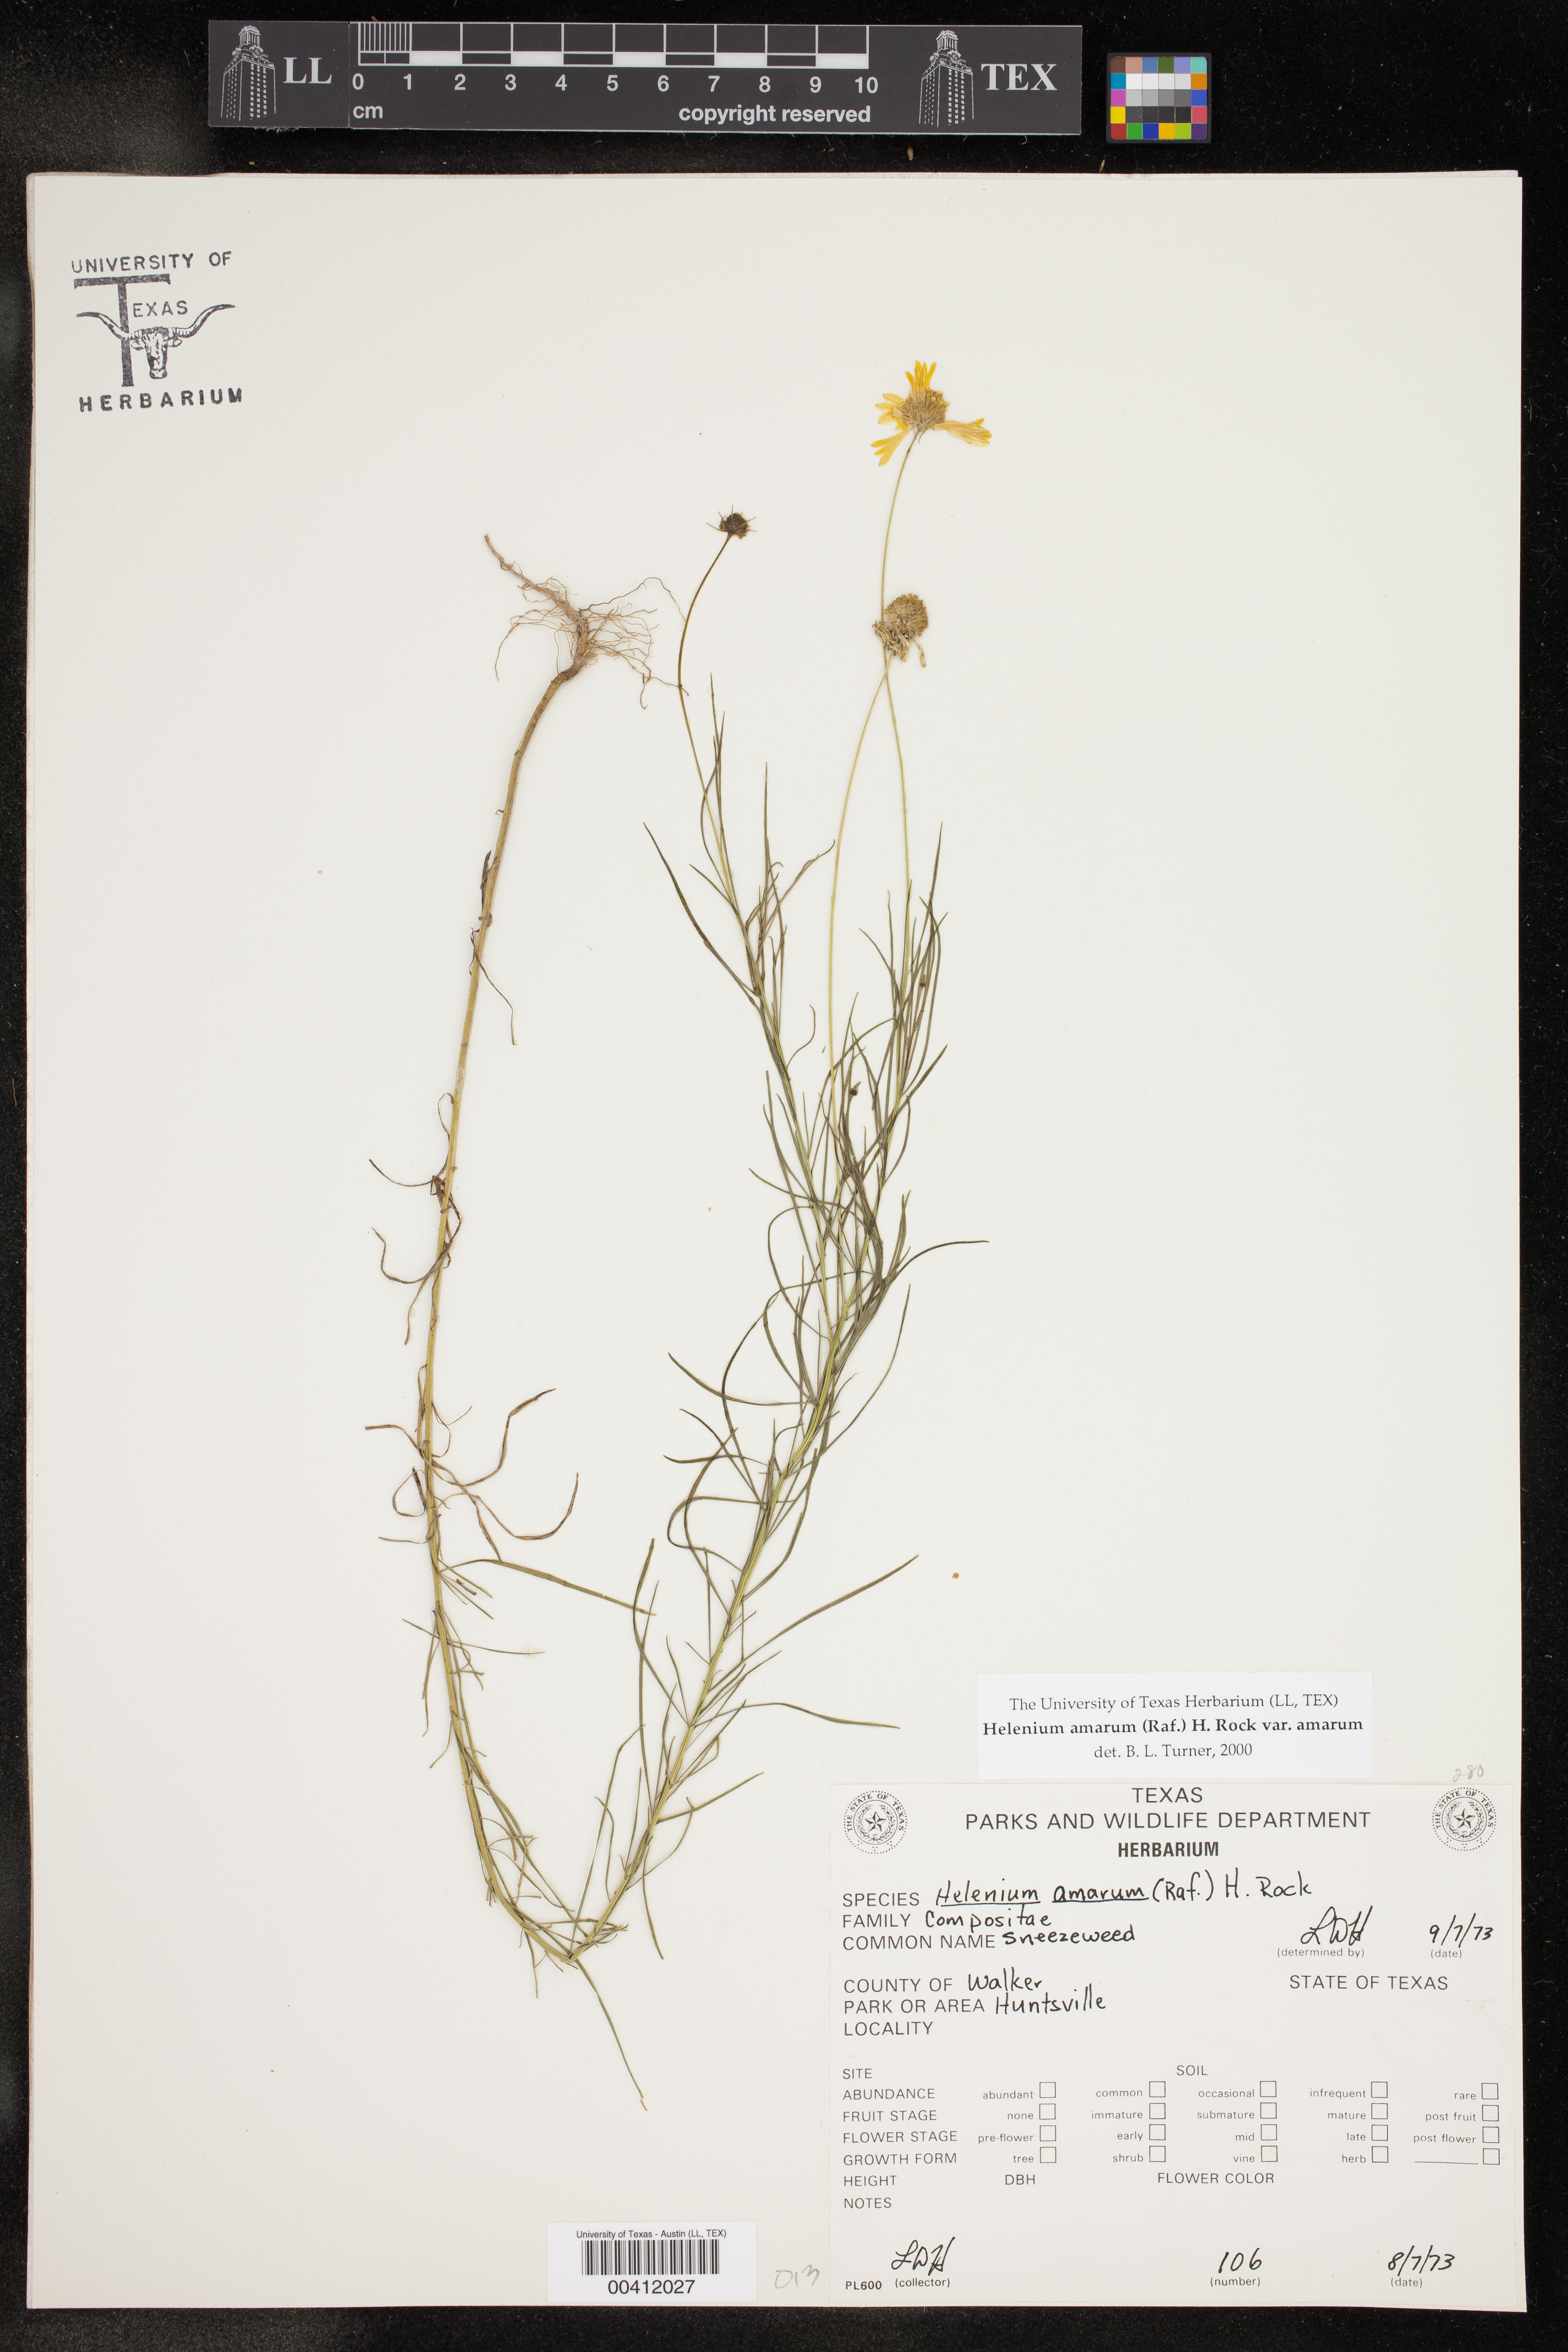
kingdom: Plantae
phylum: Tracheophyta
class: Magnoliopsida
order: Asterales
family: Asteraceae
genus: Helenium
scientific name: Helenium amarum
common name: Bitter sneezeweed
